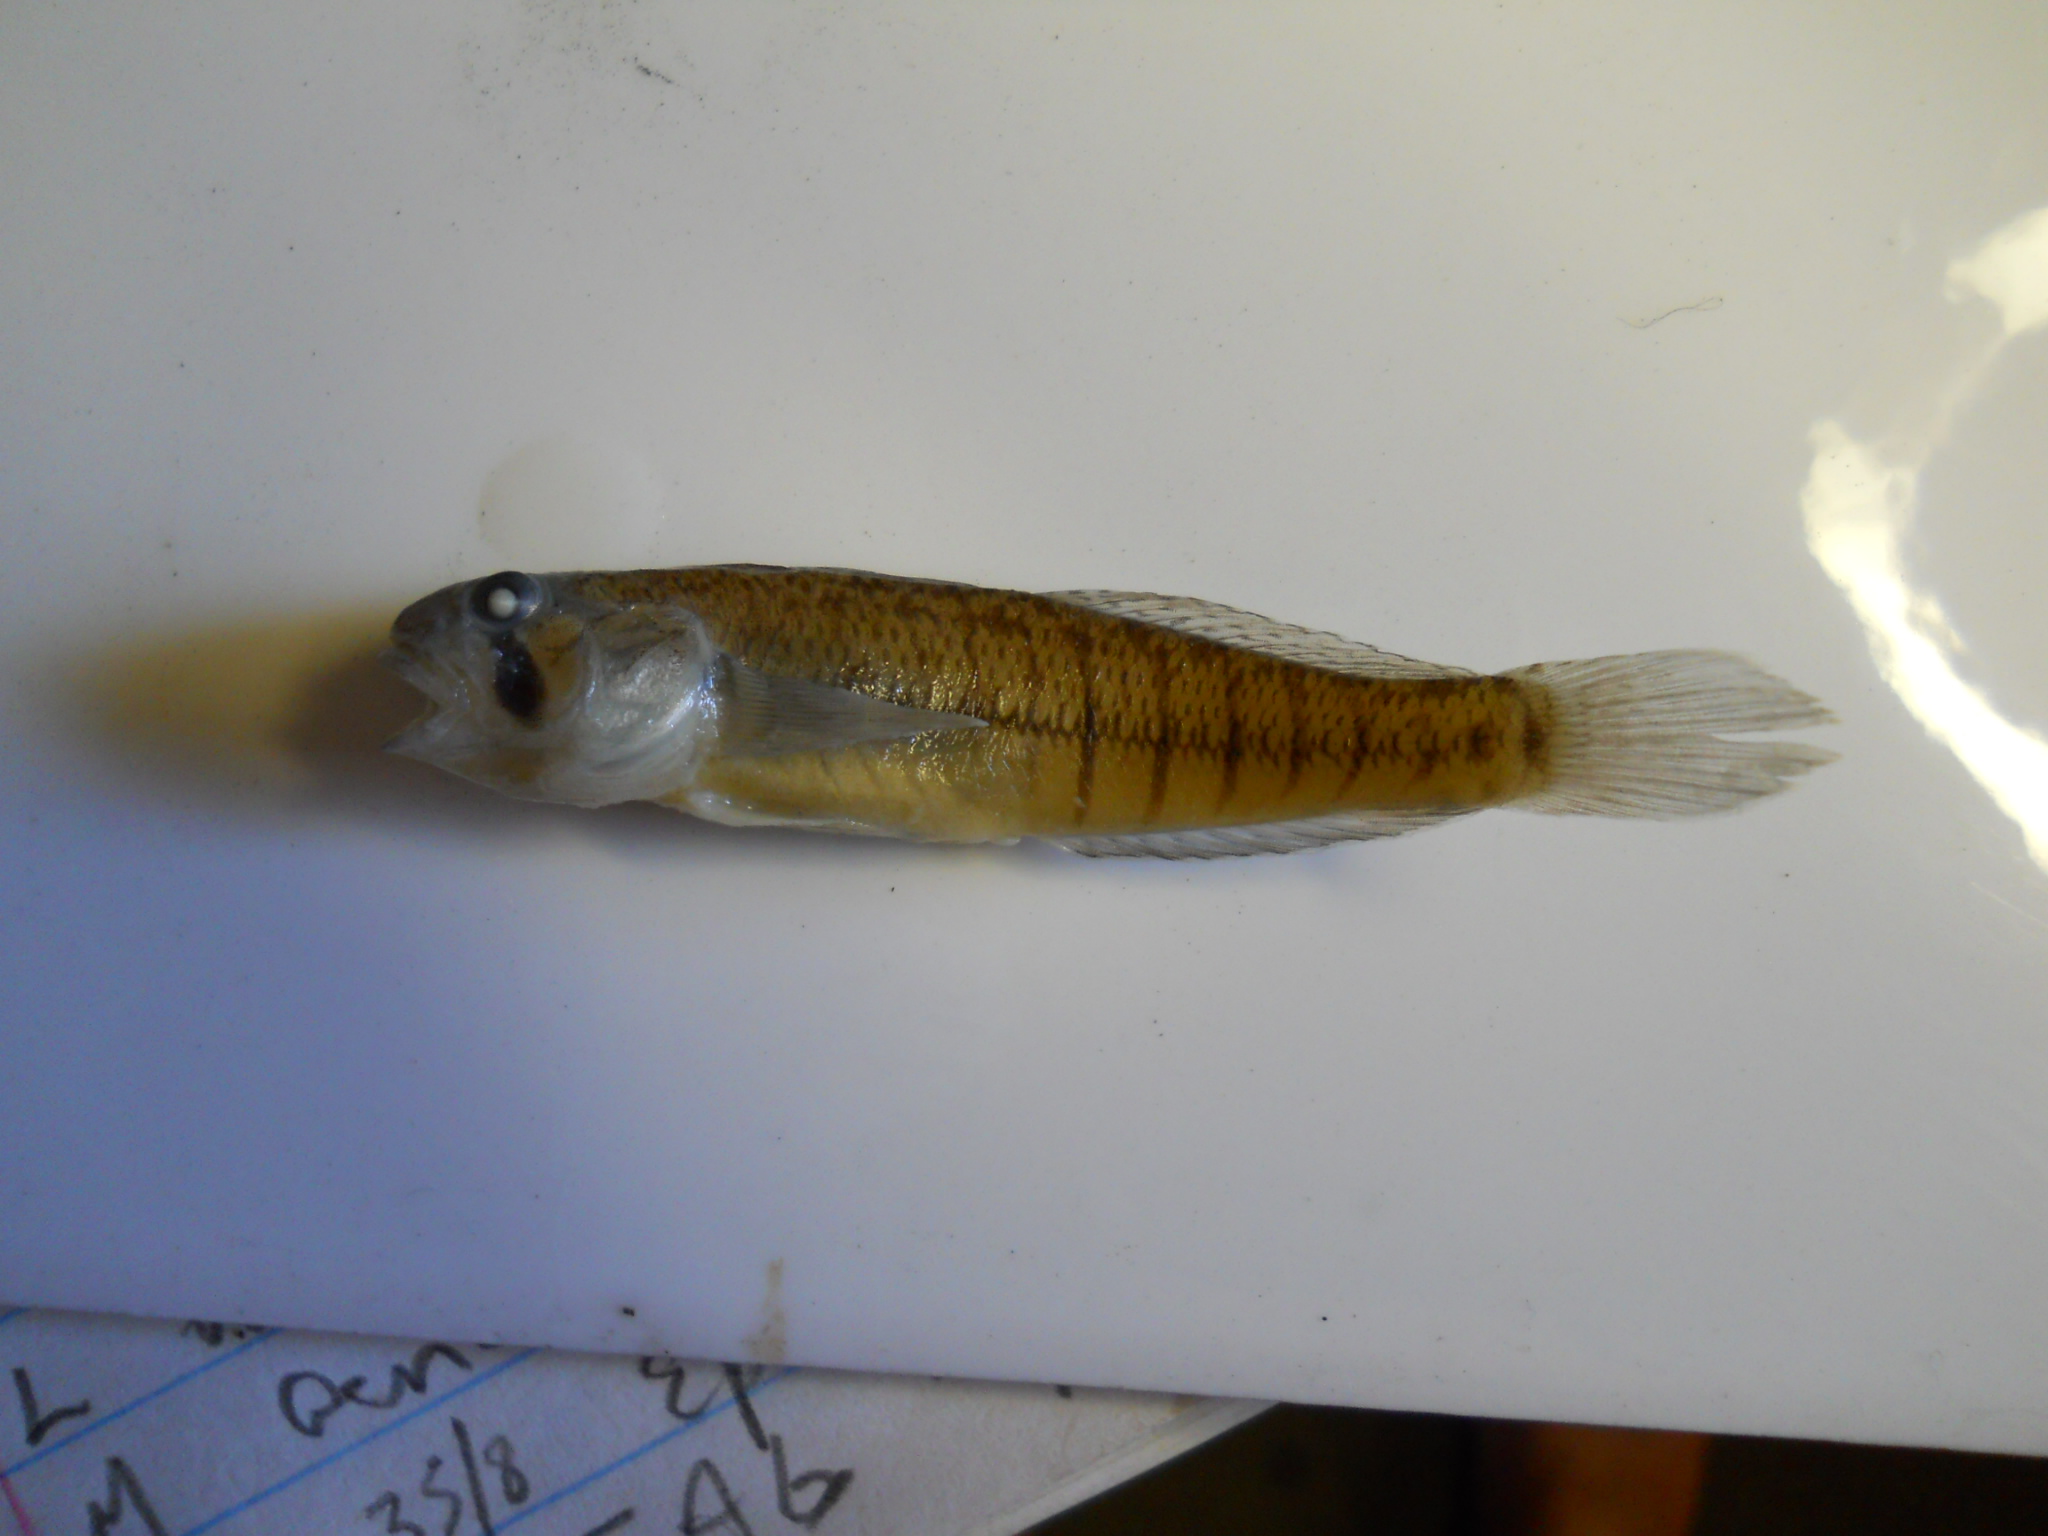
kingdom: Animalia
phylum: Chordata
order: Perciformes
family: Gobiidae
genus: Stenogobius
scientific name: Stenogobius polyzona
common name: Chinestripe goby
